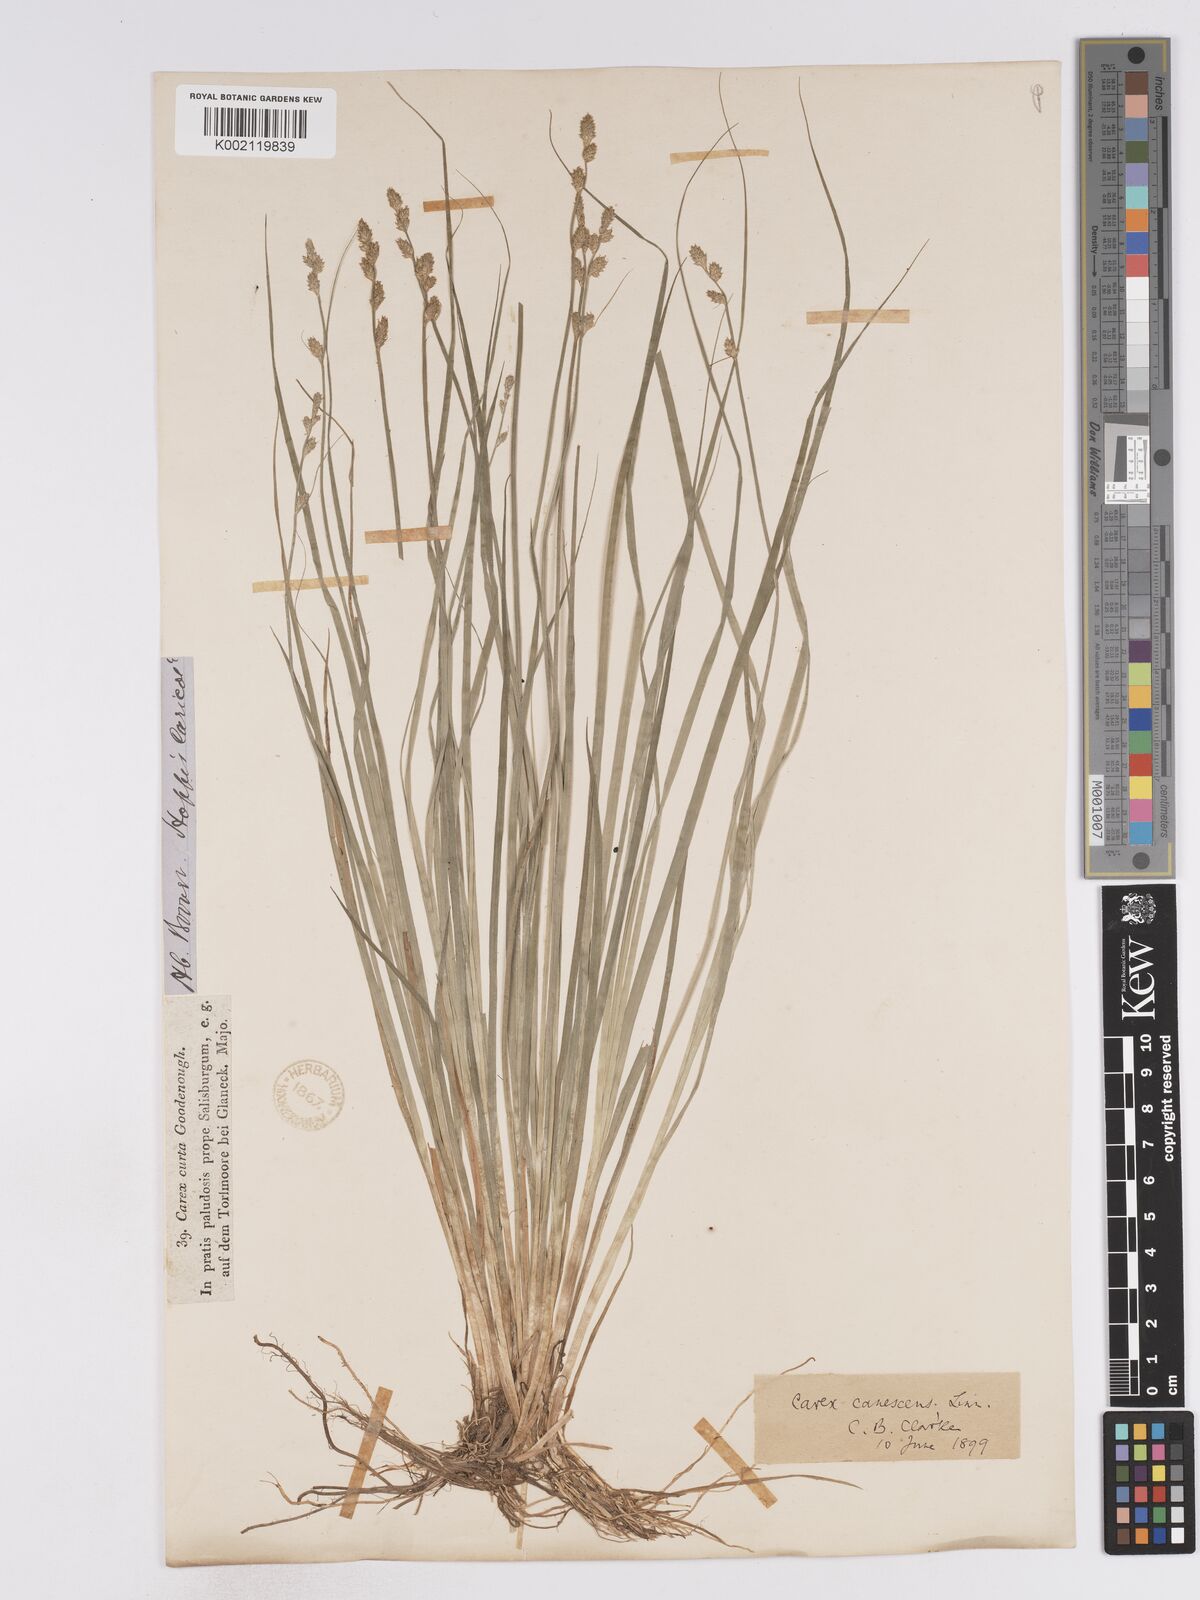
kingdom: Plantae
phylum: Tracheophyta
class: Liliopsida
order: Poales
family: Cyperaceae
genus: Carex
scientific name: Carex curta
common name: White sedge
